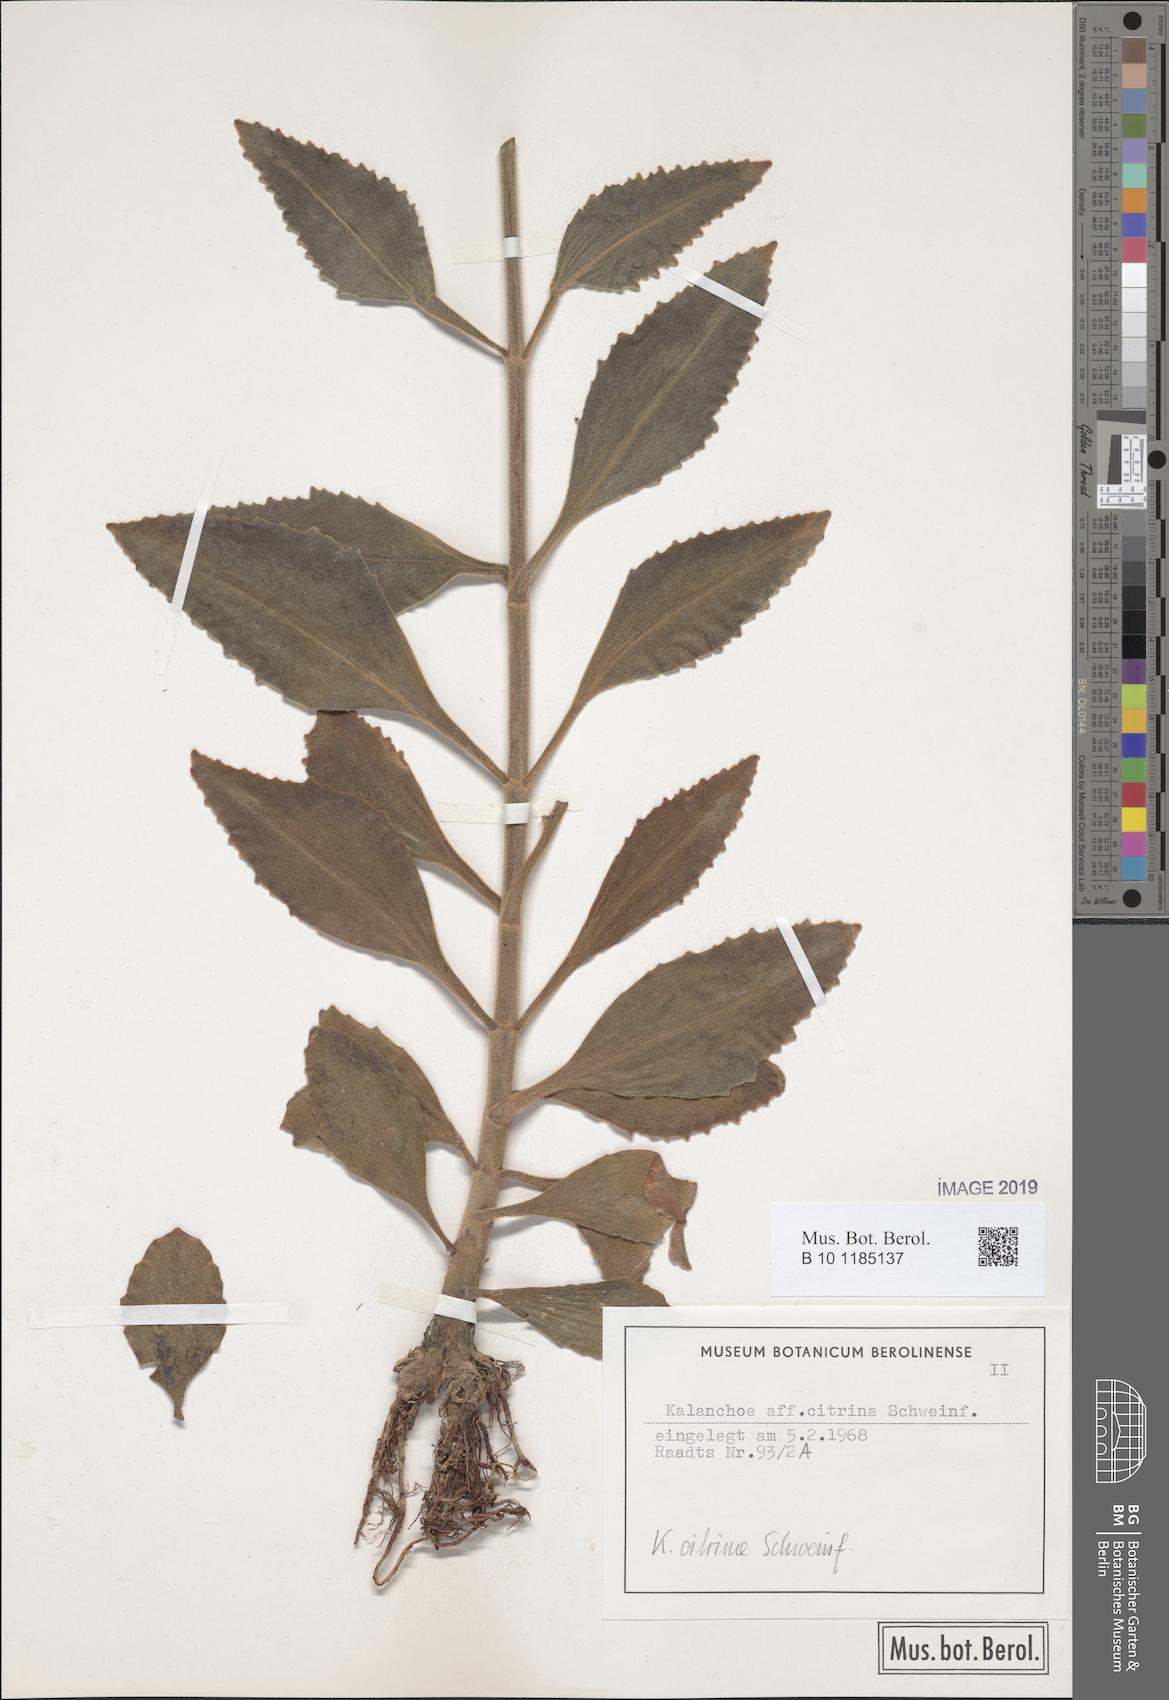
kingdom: Plantae
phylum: Tracheophyta
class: Magnoliopsida
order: Saxifragales
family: Crassulaceae
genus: Kalanchoe
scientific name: Kalanchoe citrina
